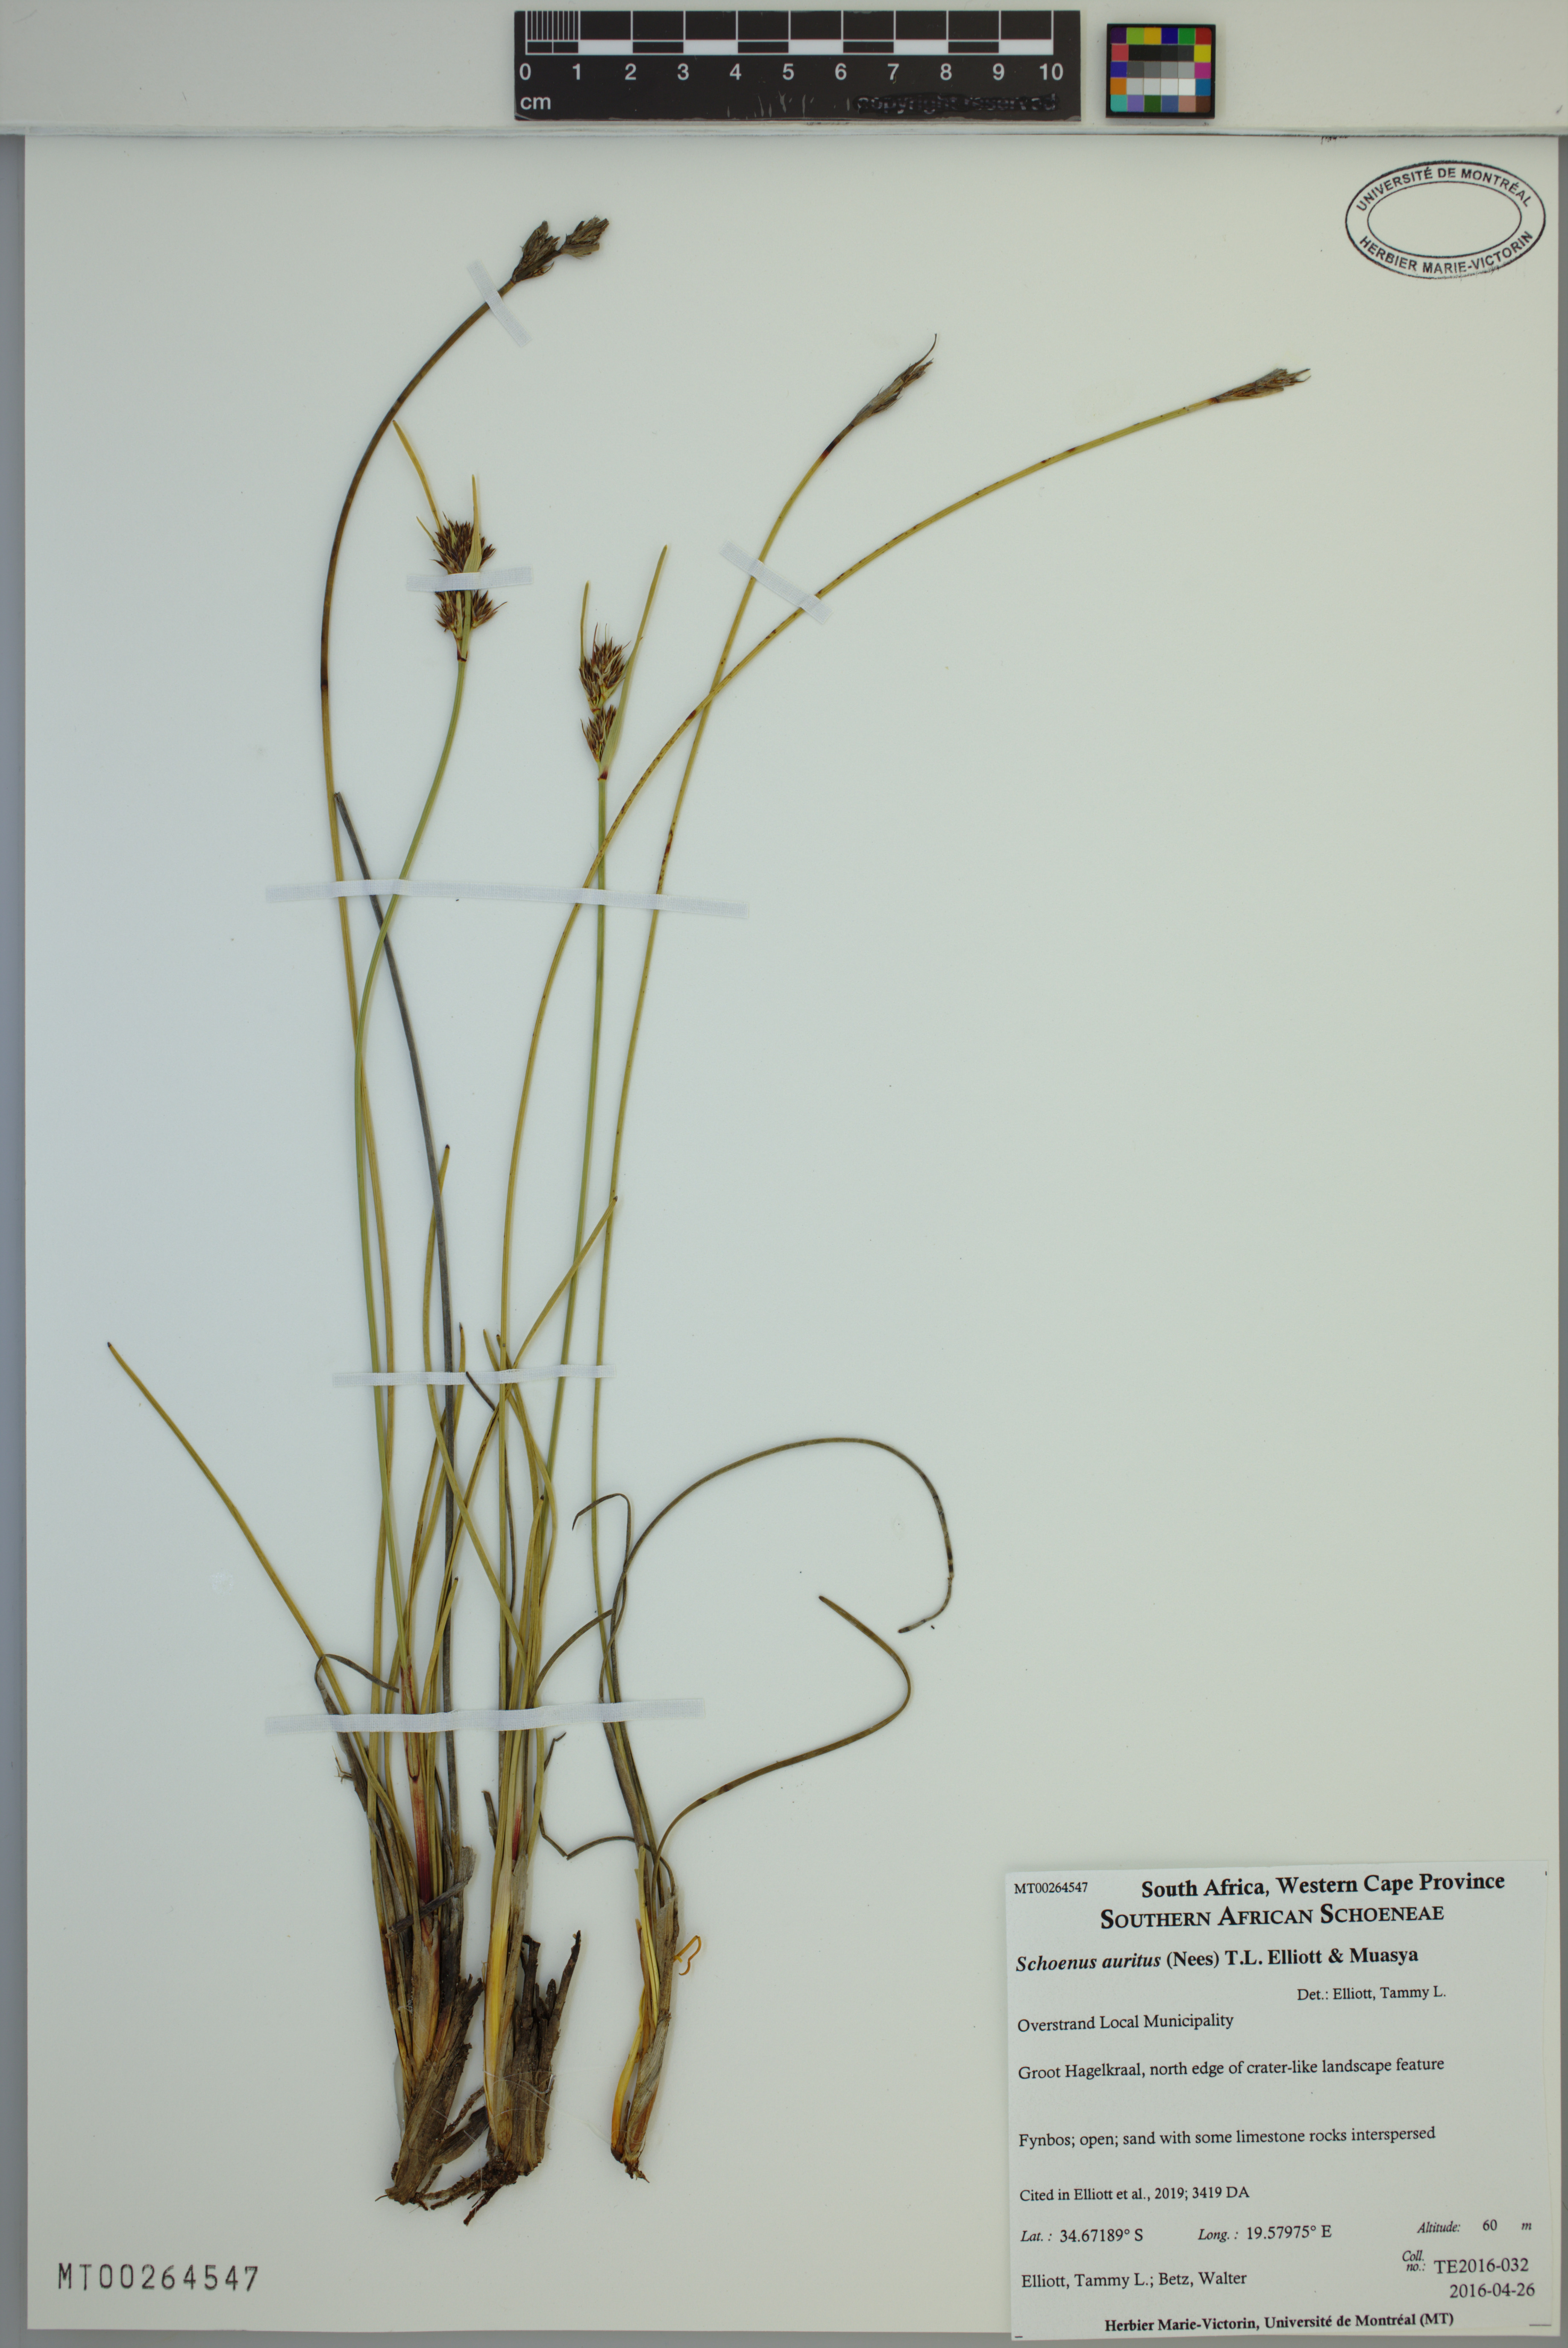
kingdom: Plantae
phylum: Tracheophyta
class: Liliopsida
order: Poales
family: Cyperaceae
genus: Schoenus
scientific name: Schoenus auritus
